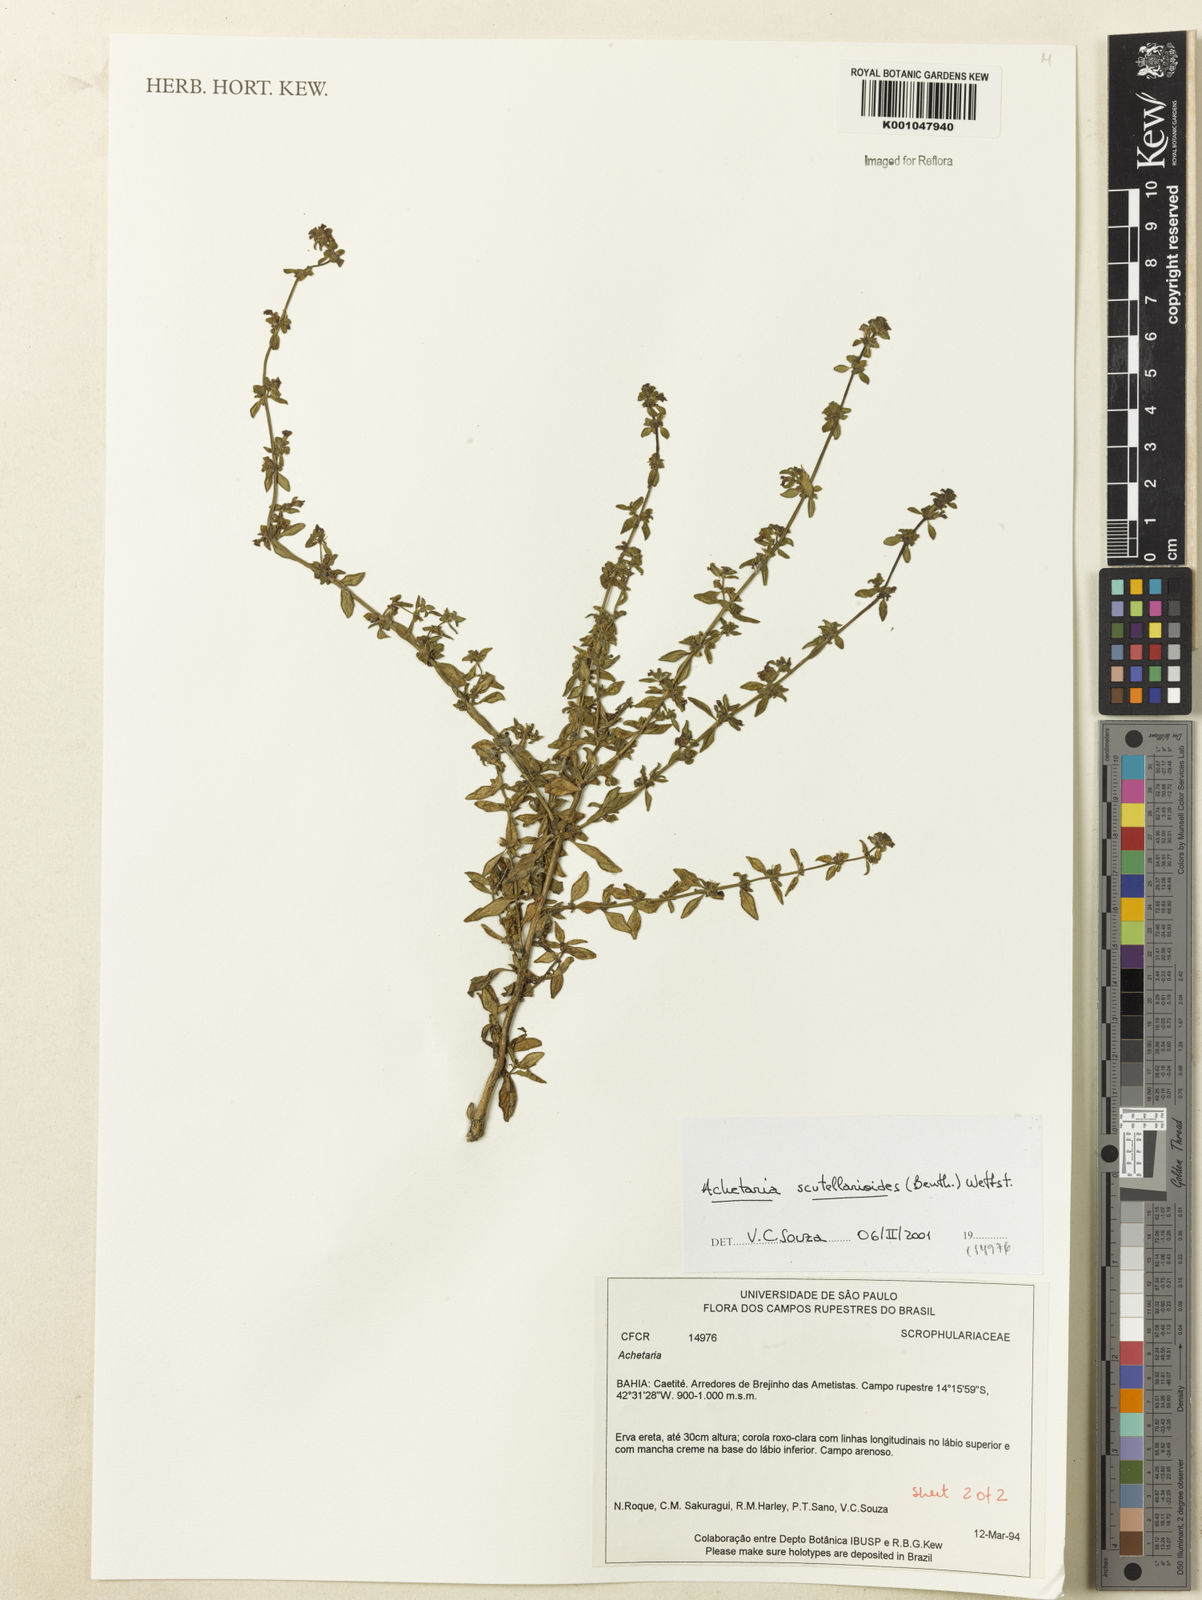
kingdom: Plantae
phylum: Tracheophyta
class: Magnoliopsida
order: Lamiales
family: Plantaginaceae
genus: Matourea
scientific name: Matourea scutellarioides
